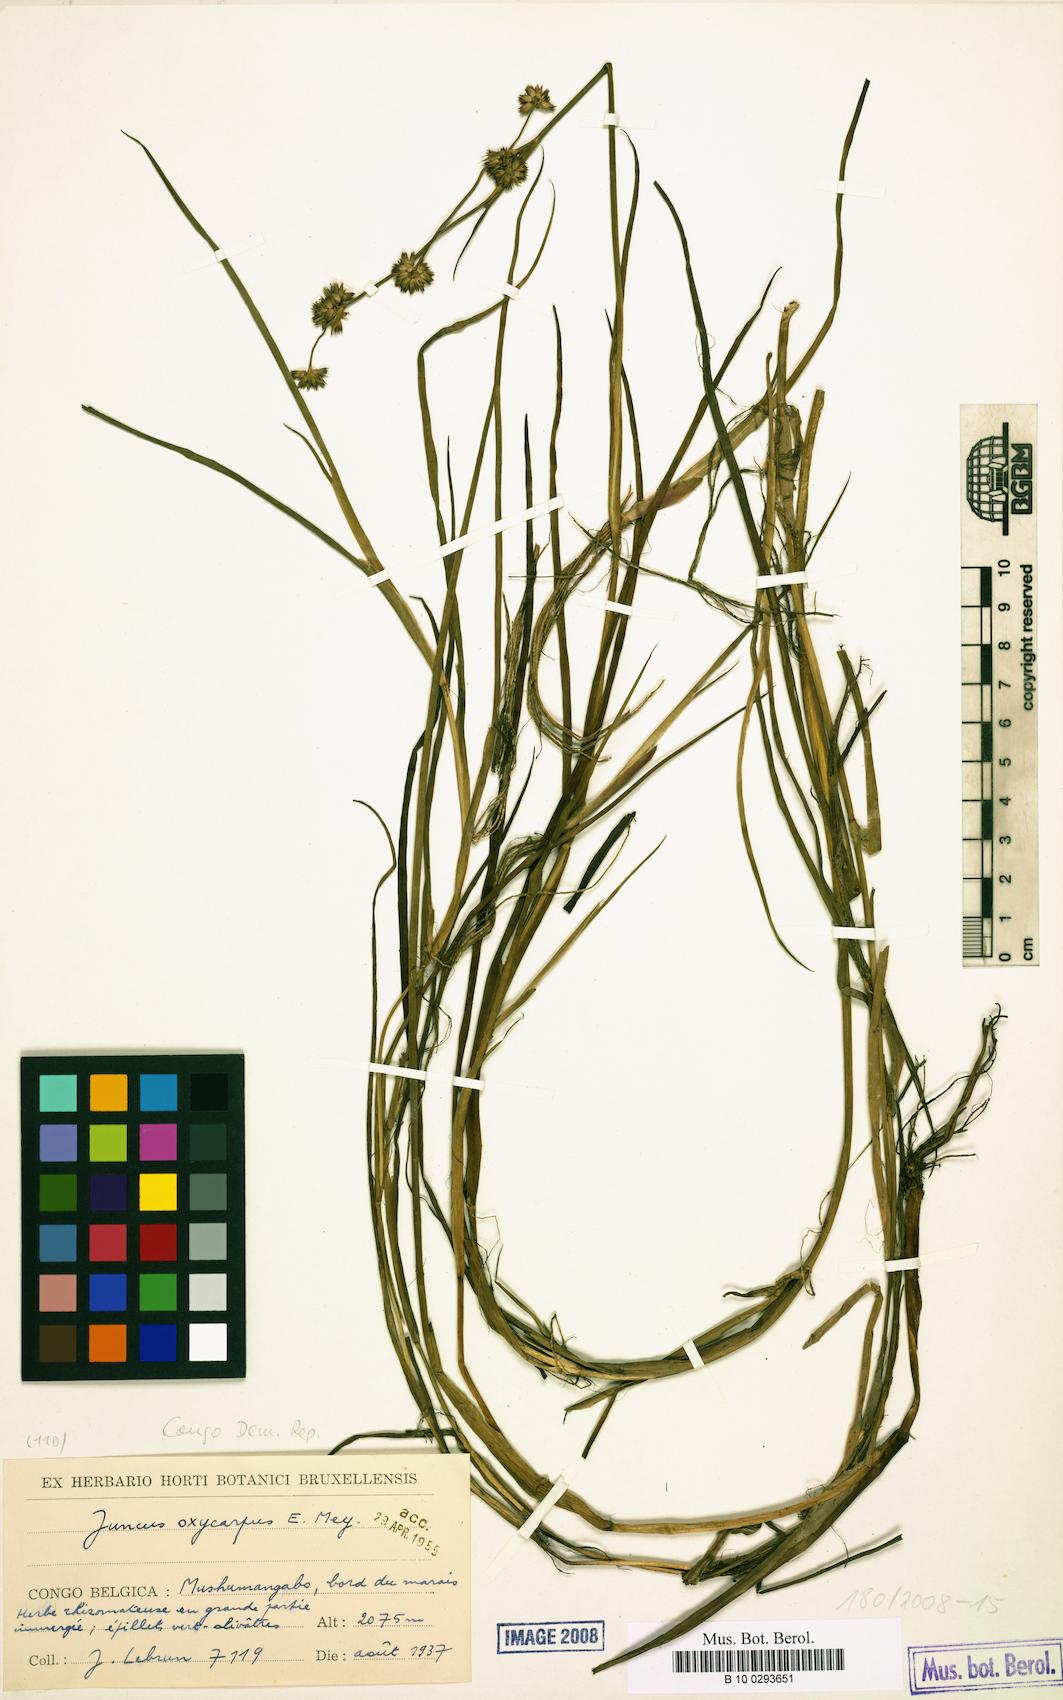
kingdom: Plantae
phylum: Tracheophyta
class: Liliopsida
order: Poales
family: Juncaceae
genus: Juncus
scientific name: Juncus oxycarpus
